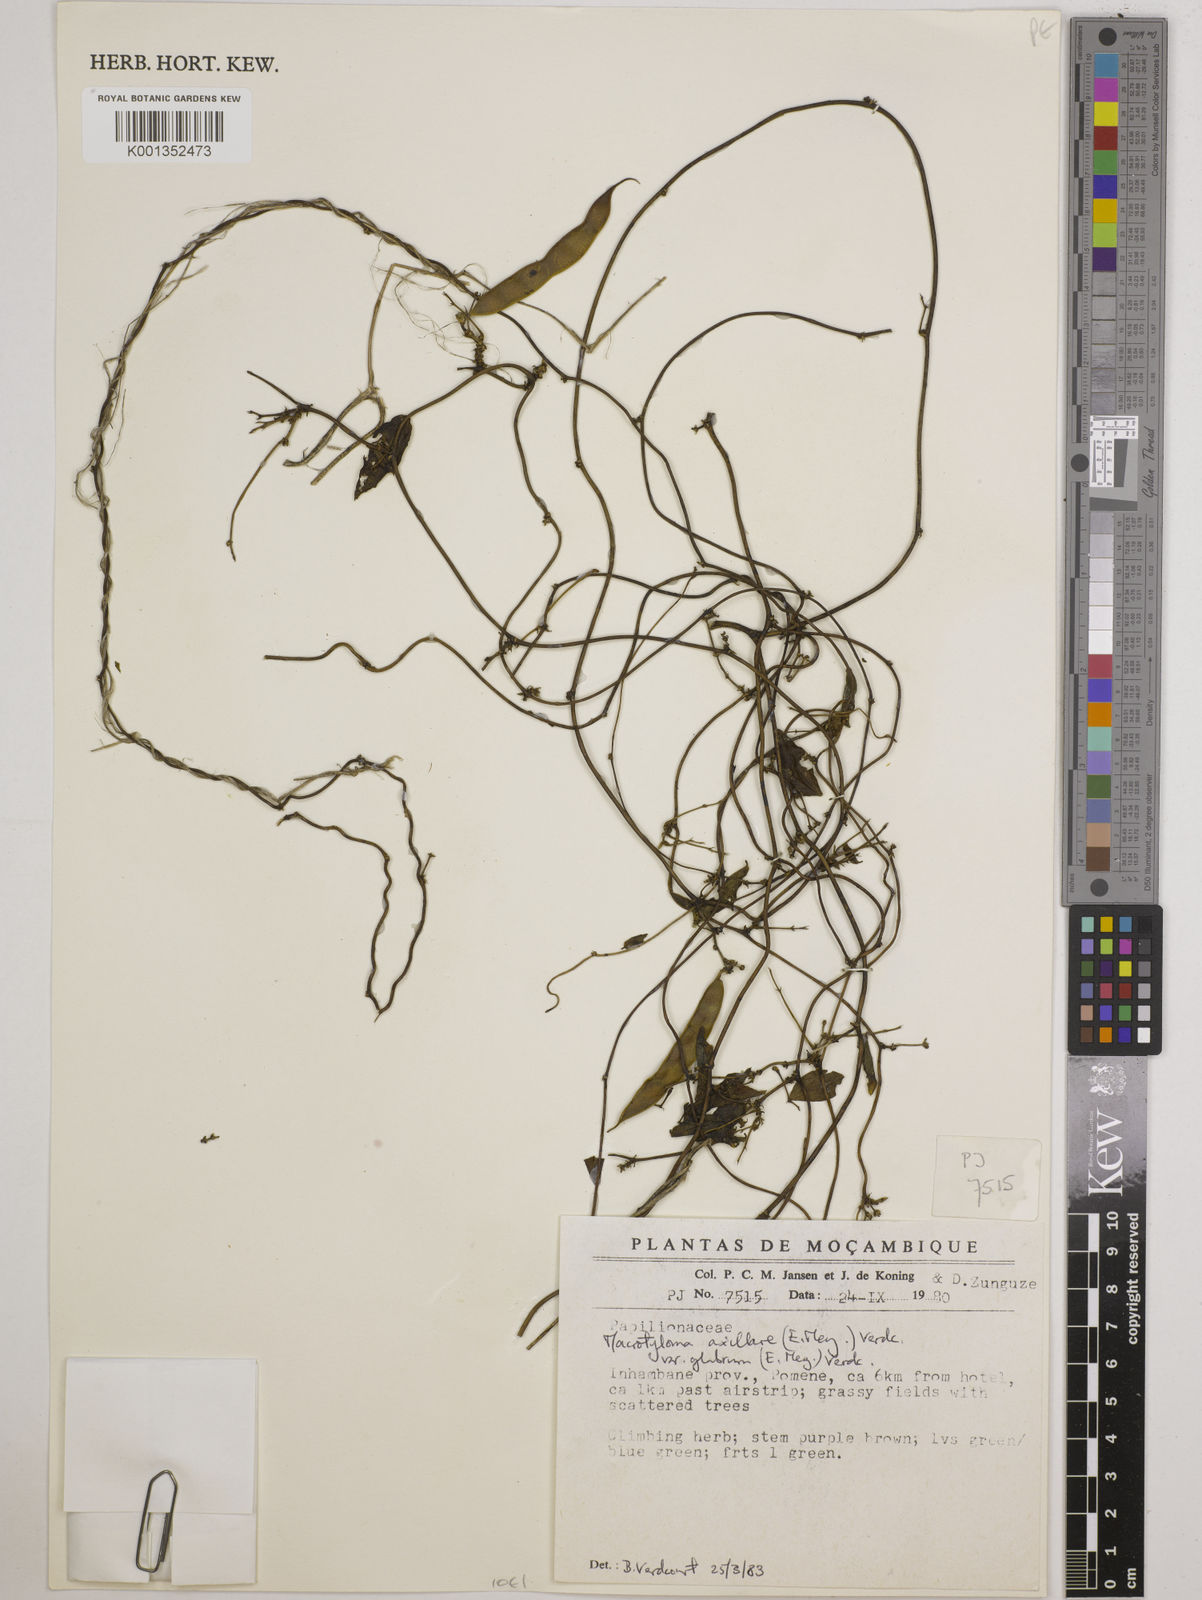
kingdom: Plantae
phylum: Tracheophyta
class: Magnoliopsida
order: Fabales
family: Fabaceae
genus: Macrotyloma
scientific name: Macrotyloma
